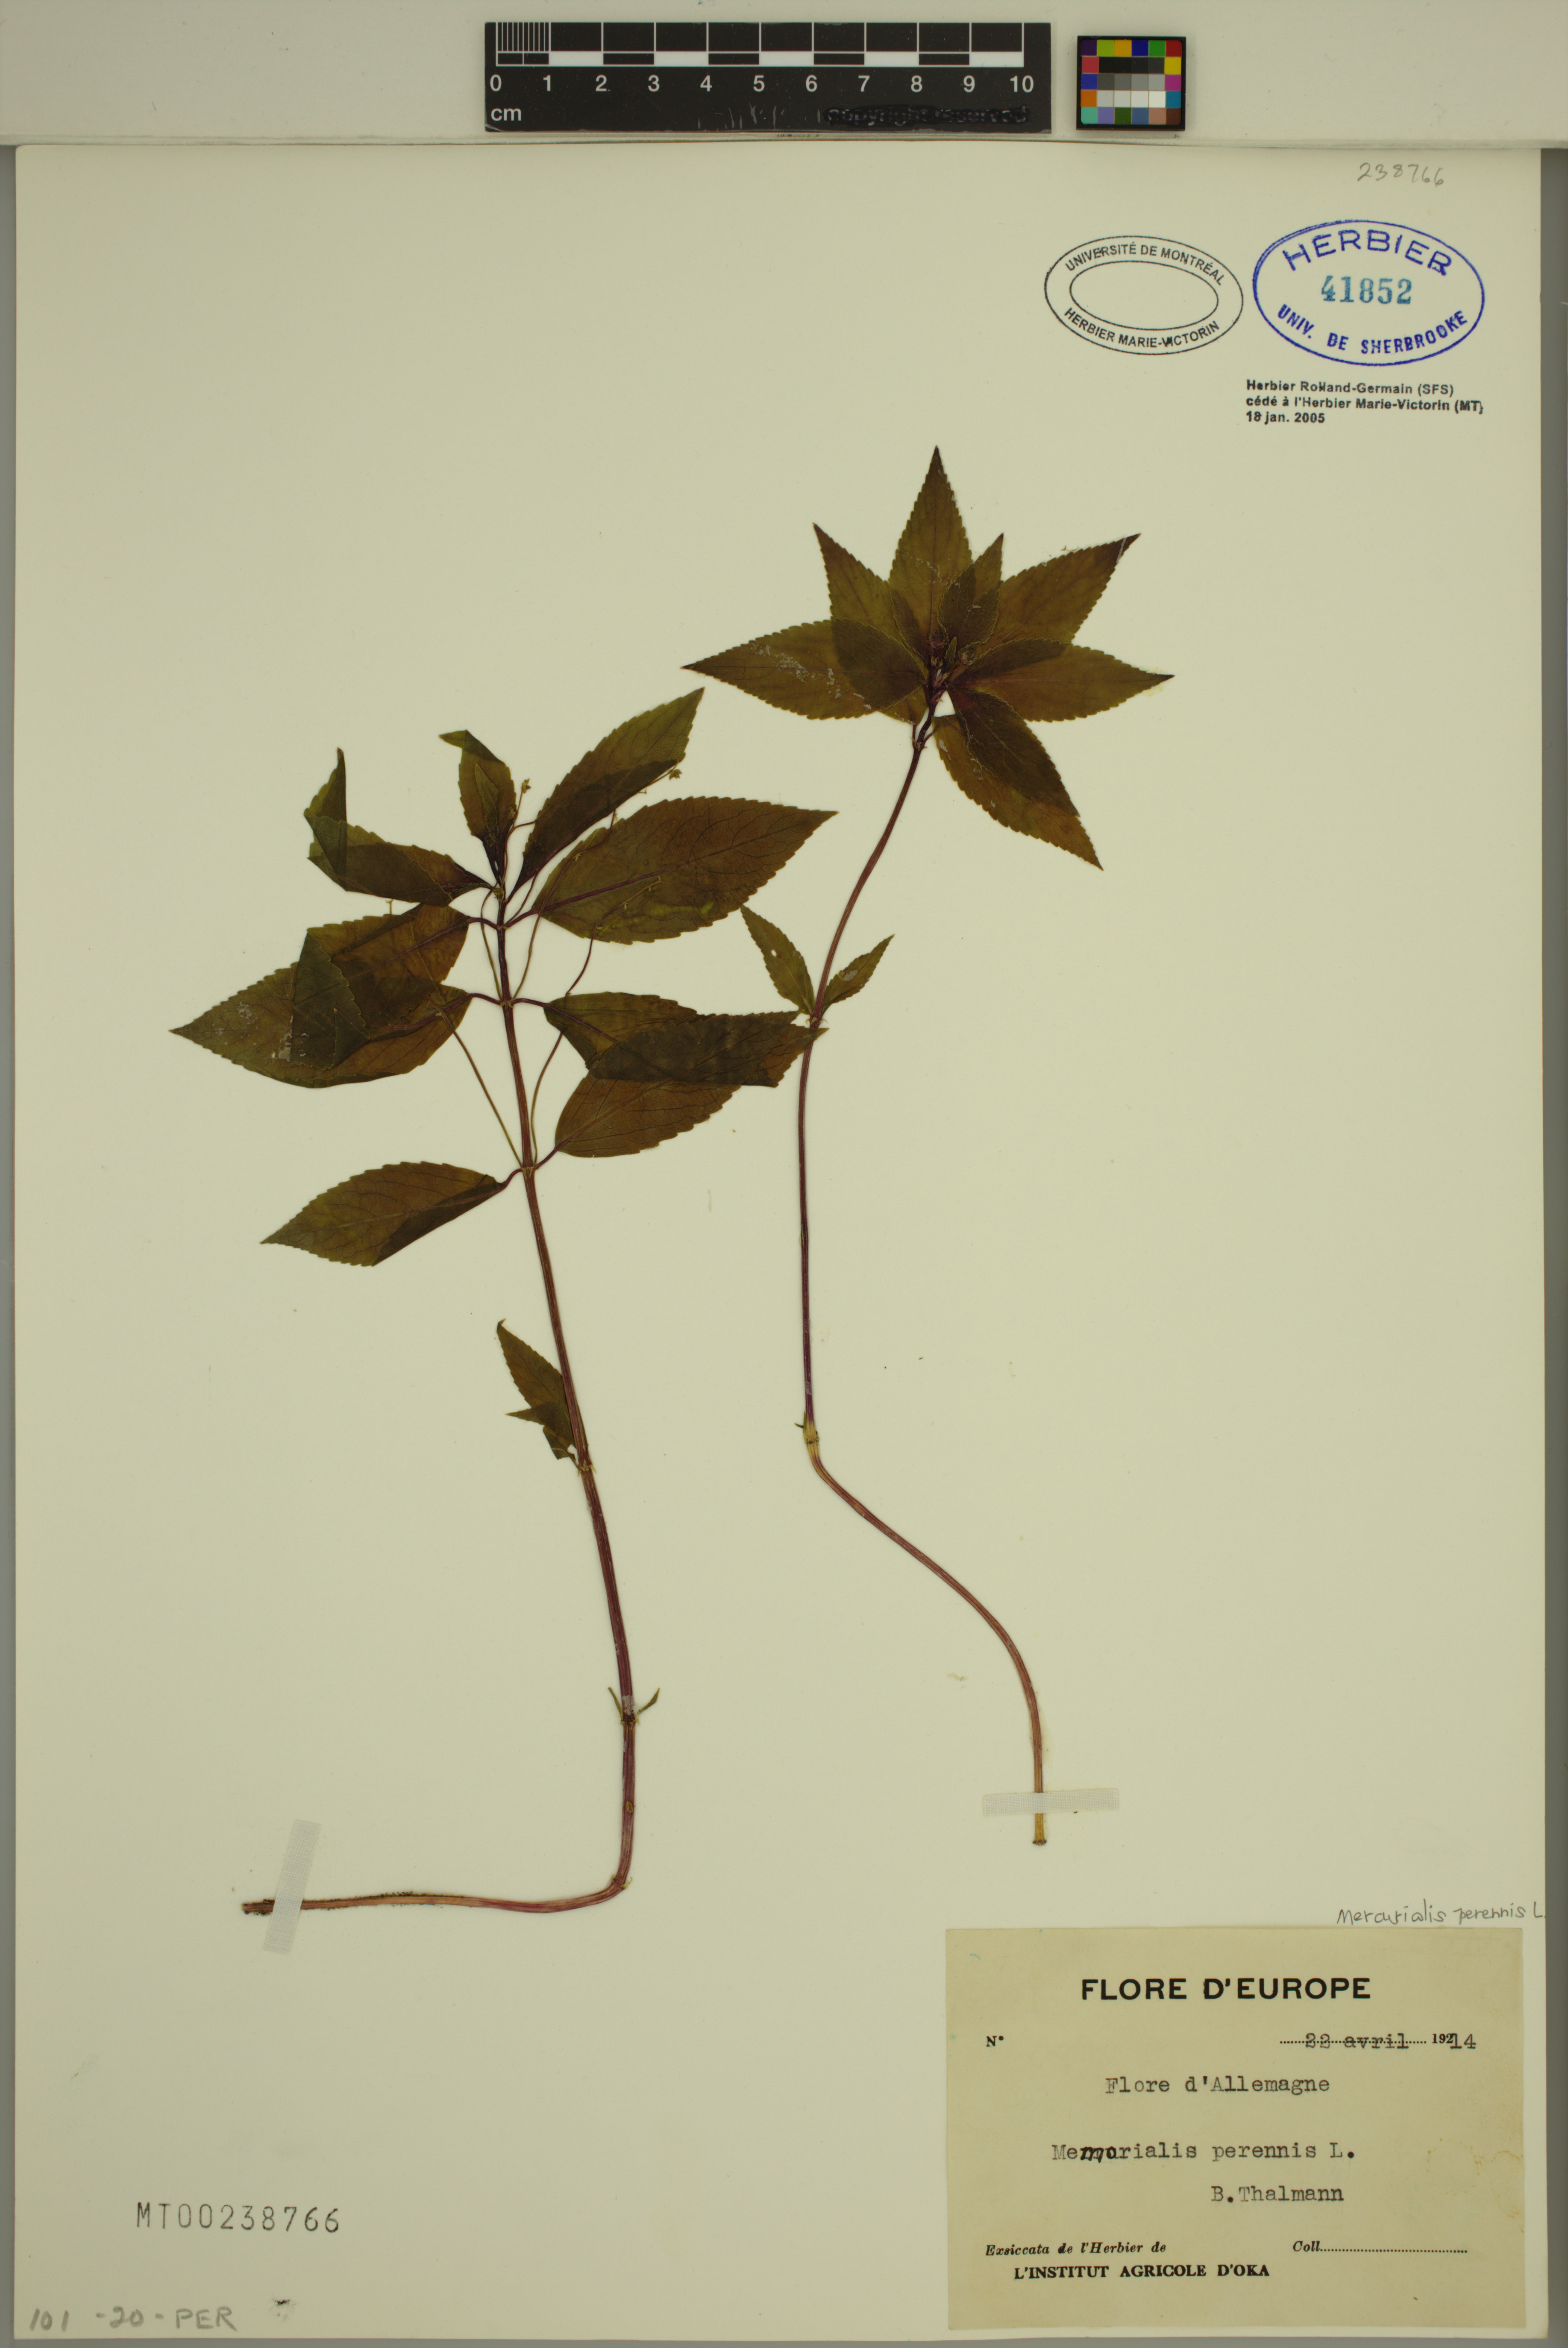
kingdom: Plantae
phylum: Tracheophyta
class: Magnoliopsida
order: Malpighiales
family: Euphorbiaceae
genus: Mercurialis
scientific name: Mercurialis perennis
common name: Dog mercury
